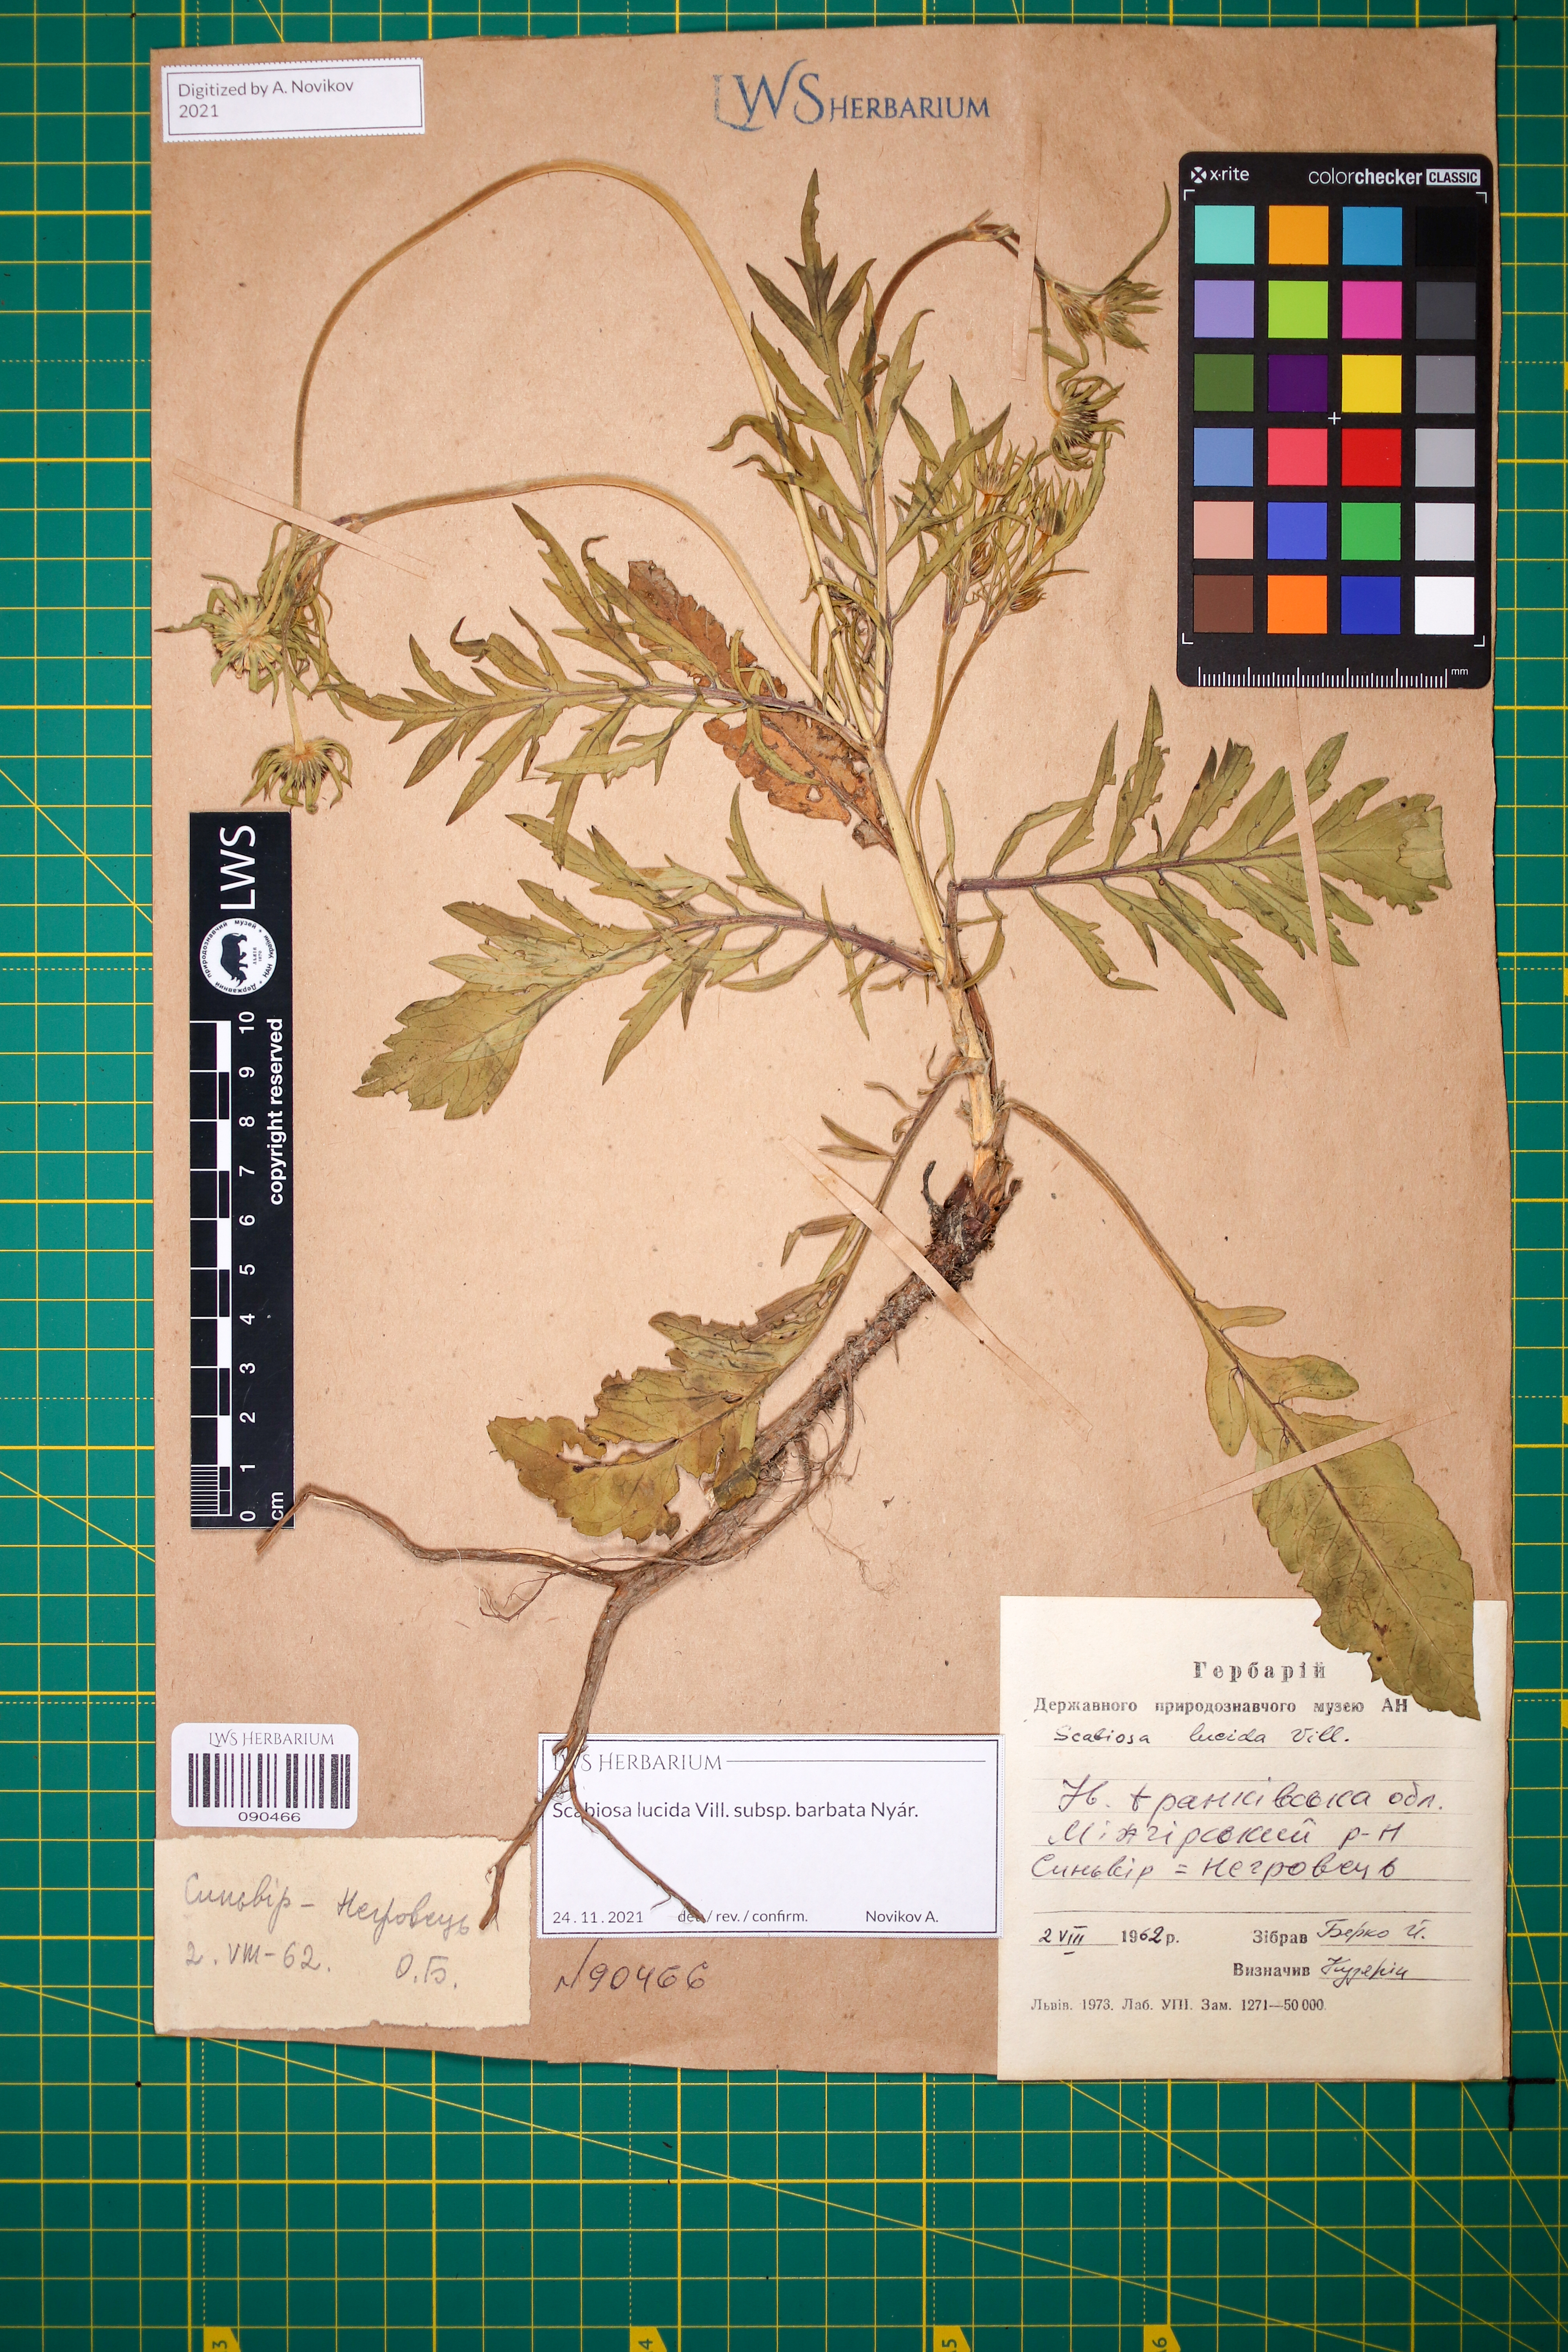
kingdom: Plantae
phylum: Tracheophyta
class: Magnoliopsida
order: Dipsacales
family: Caprifoliaceae
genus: Scabiosa
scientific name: Scabiosa lucida
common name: Shining scabious
